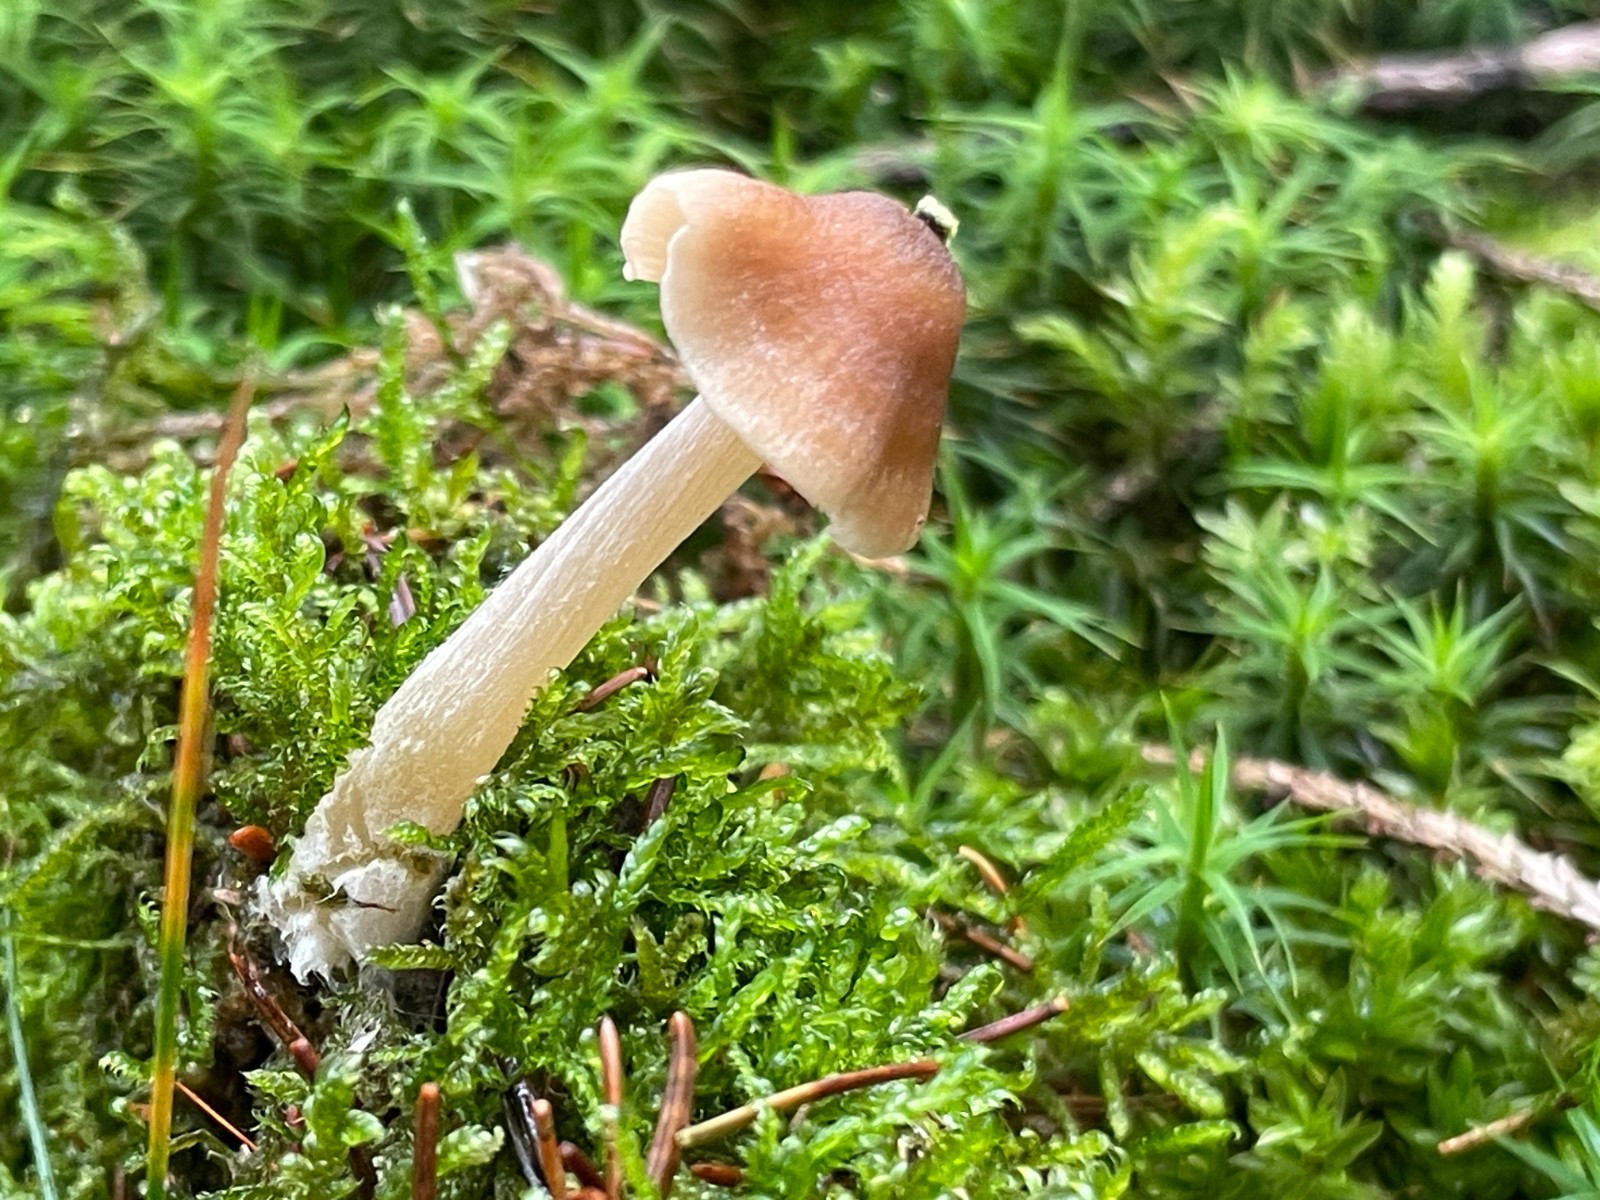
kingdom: Fungi
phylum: Basidiomycota
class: Agaricomycetes
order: Agaricales
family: Entolomataceae
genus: Entoloma
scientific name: Entoloma cetratum
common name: voks-rødblad
